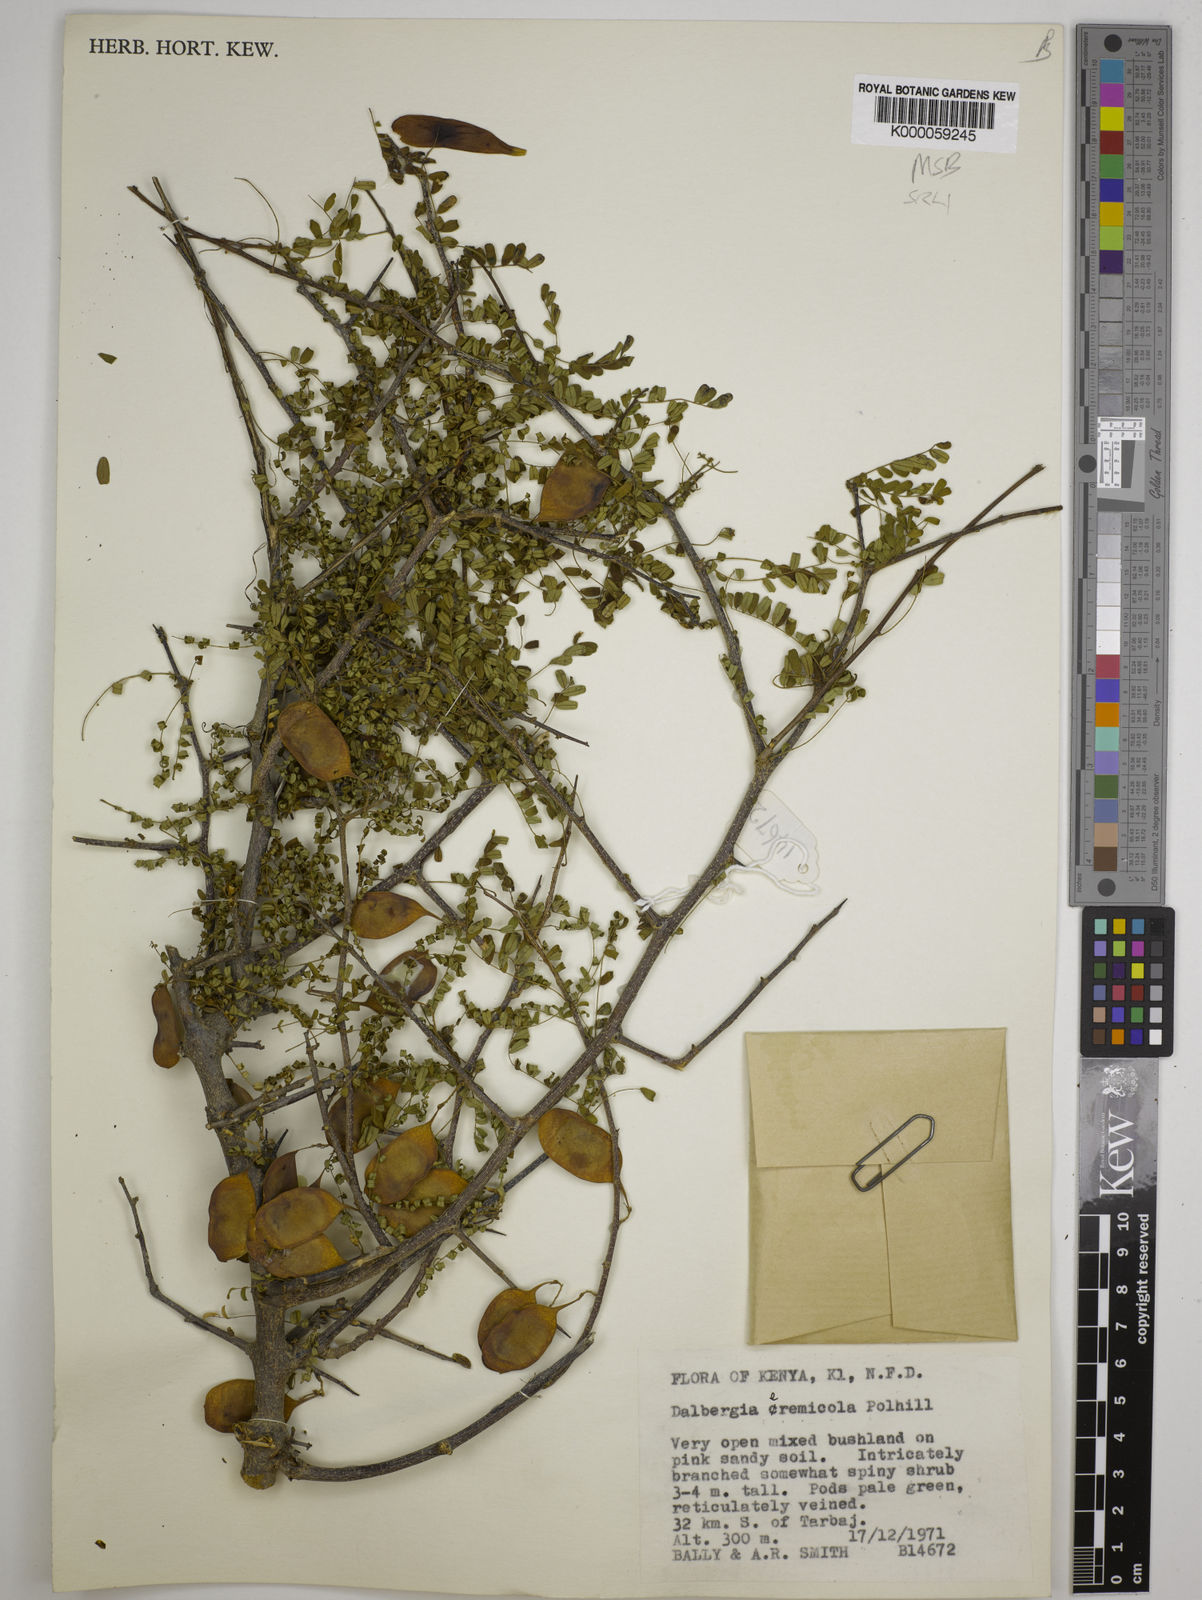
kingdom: Plantae
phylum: Tracheophyta
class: Magnoliopsida
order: Fabales
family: Fabaceae
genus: Dalbergia
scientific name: Dalbergia eremicola
